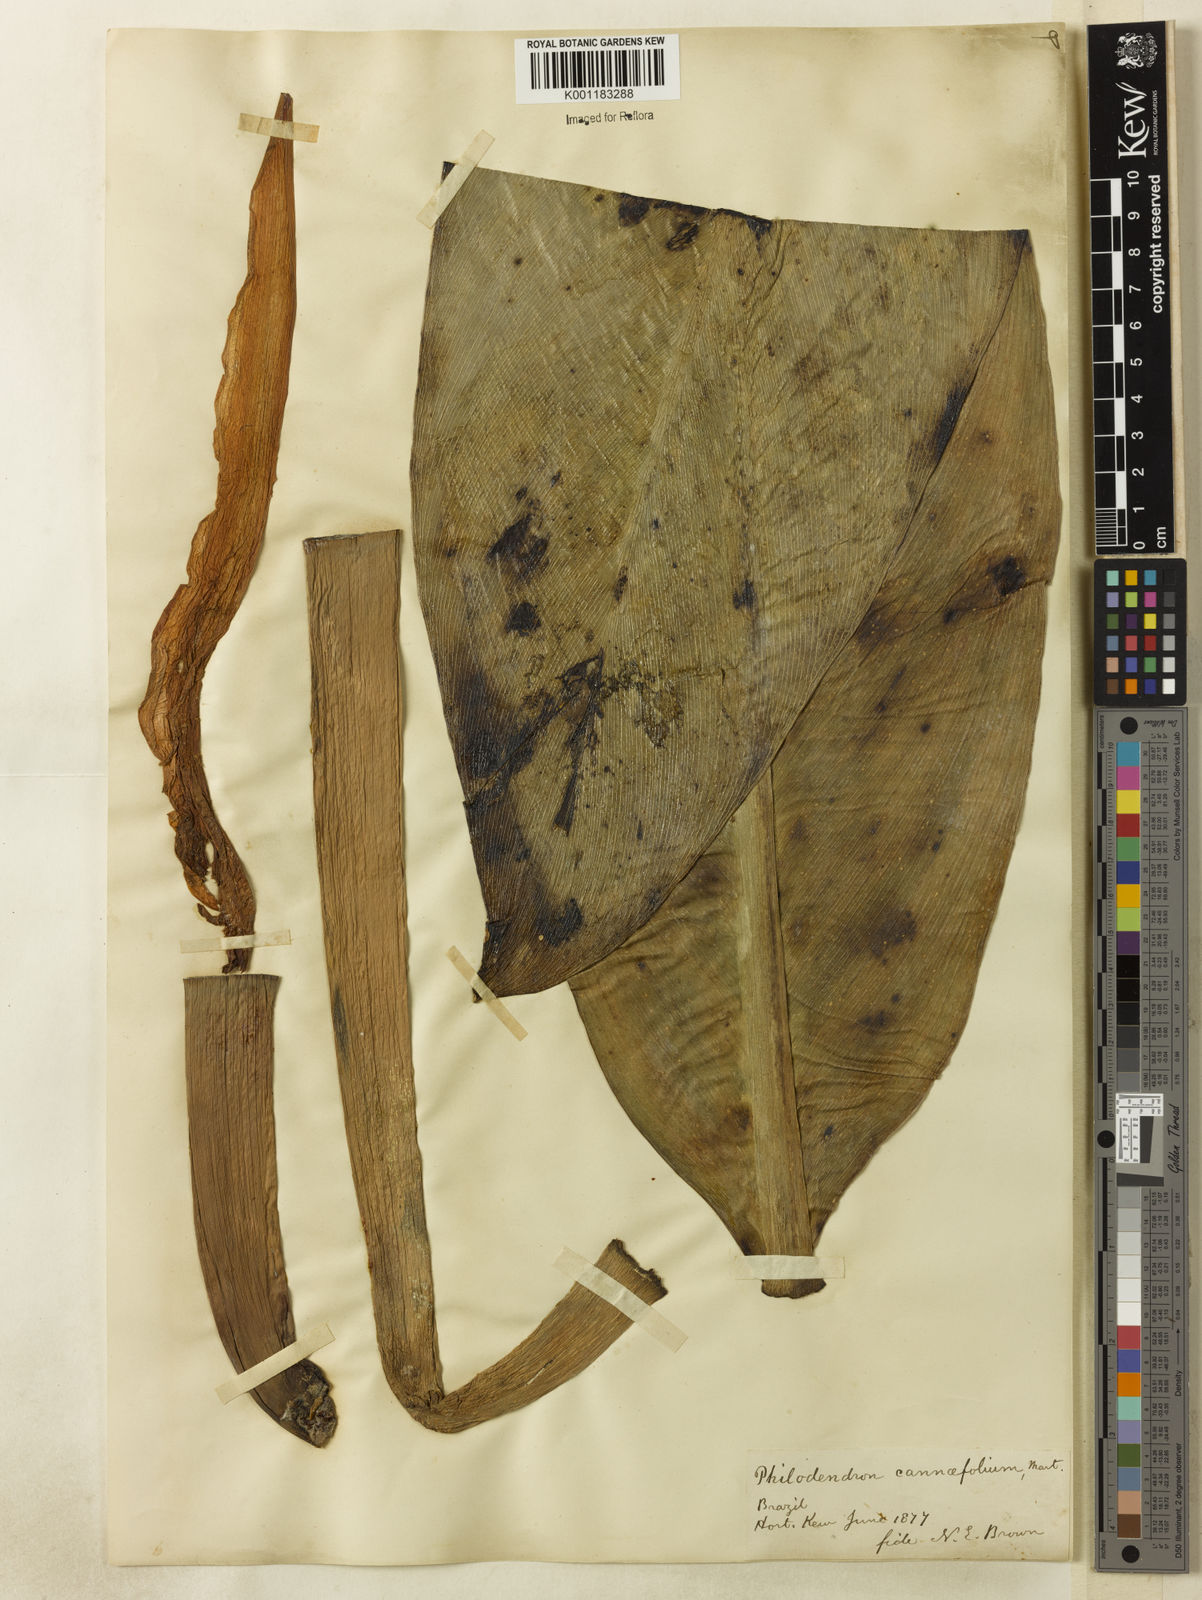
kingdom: Plantae
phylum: Tracheophyta
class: Liliopsida
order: Alismatales
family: Araceae
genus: Philodendron
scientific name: Philodendron martianum
